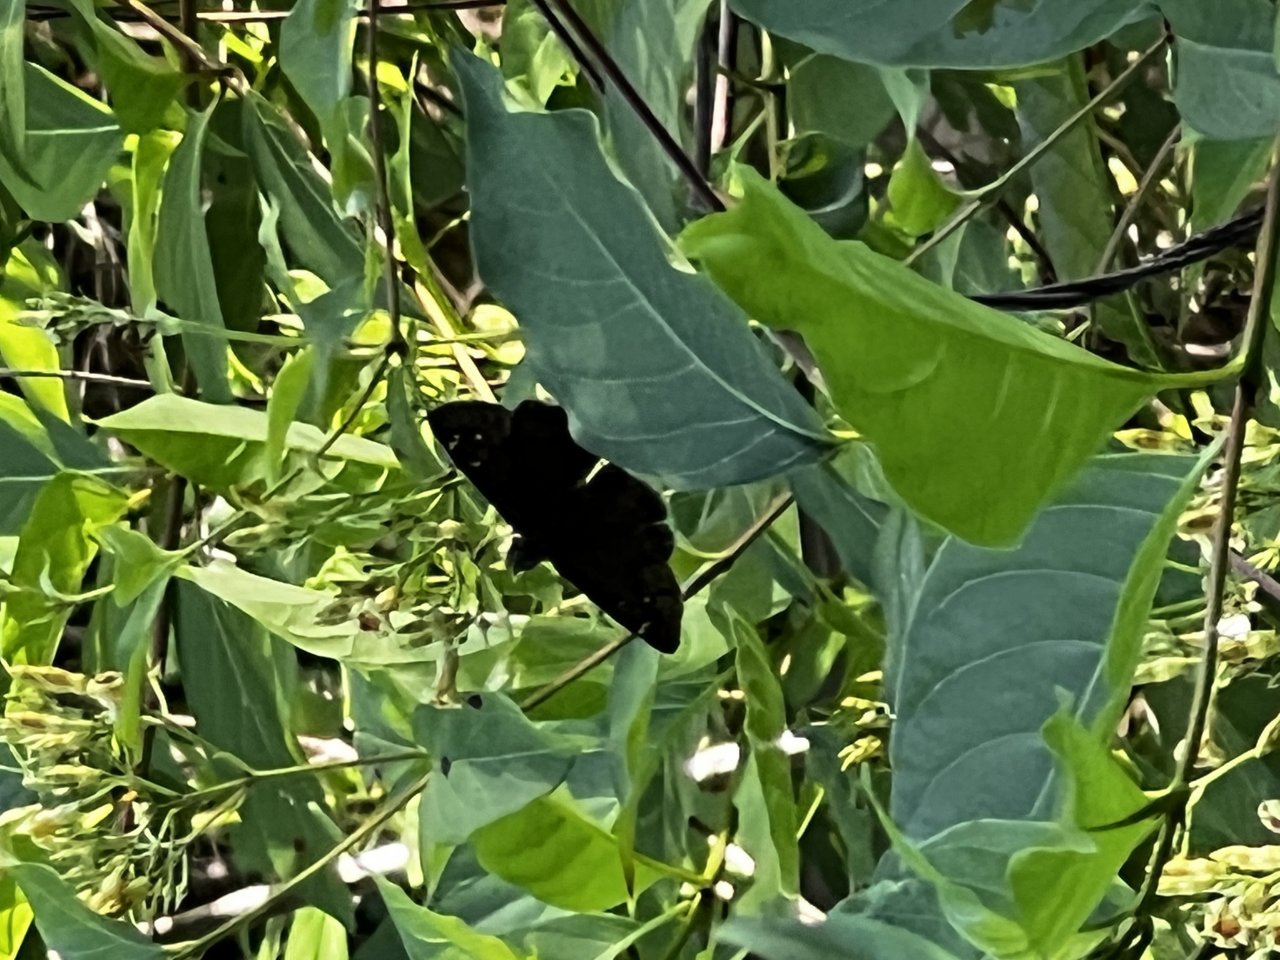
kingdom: Animalia
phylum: Arthropoda
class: Insecta
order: Lepidoptera
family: Hesperiidae
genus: Gesta
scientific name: Gesta
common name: Horace's Duskywing
